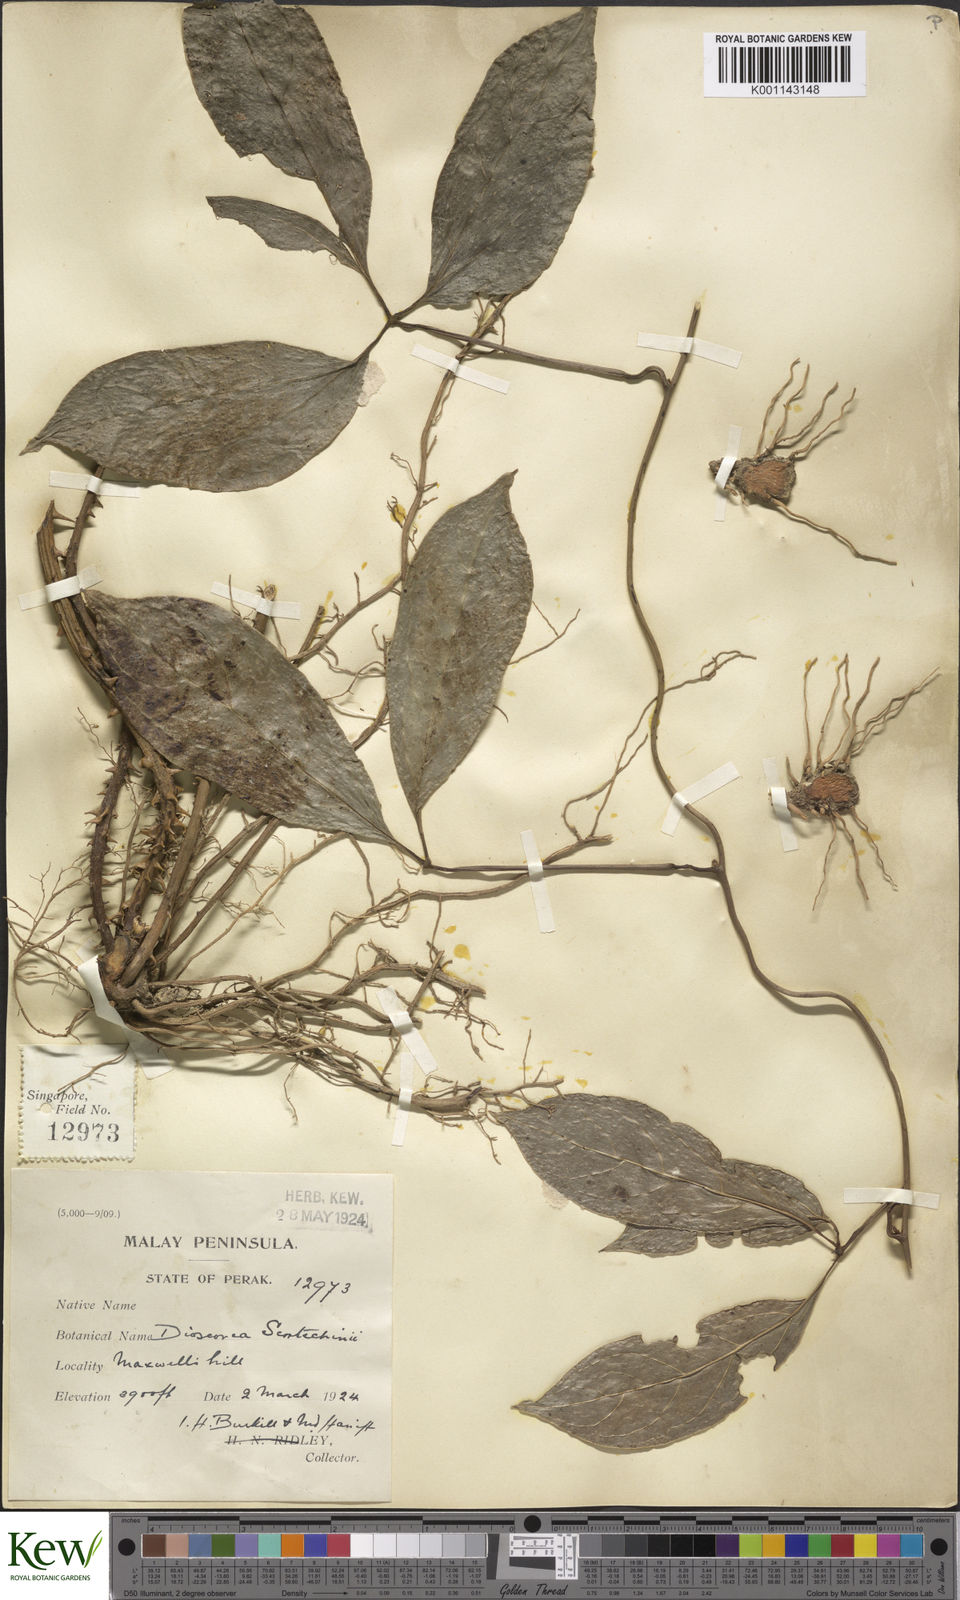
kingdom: Plantae
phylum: Tracheophyta
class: Liliopsida
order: Dioscoreales
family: Dioscoreaceae
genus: Dioscorea
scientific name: Dioscorea scortechinii
